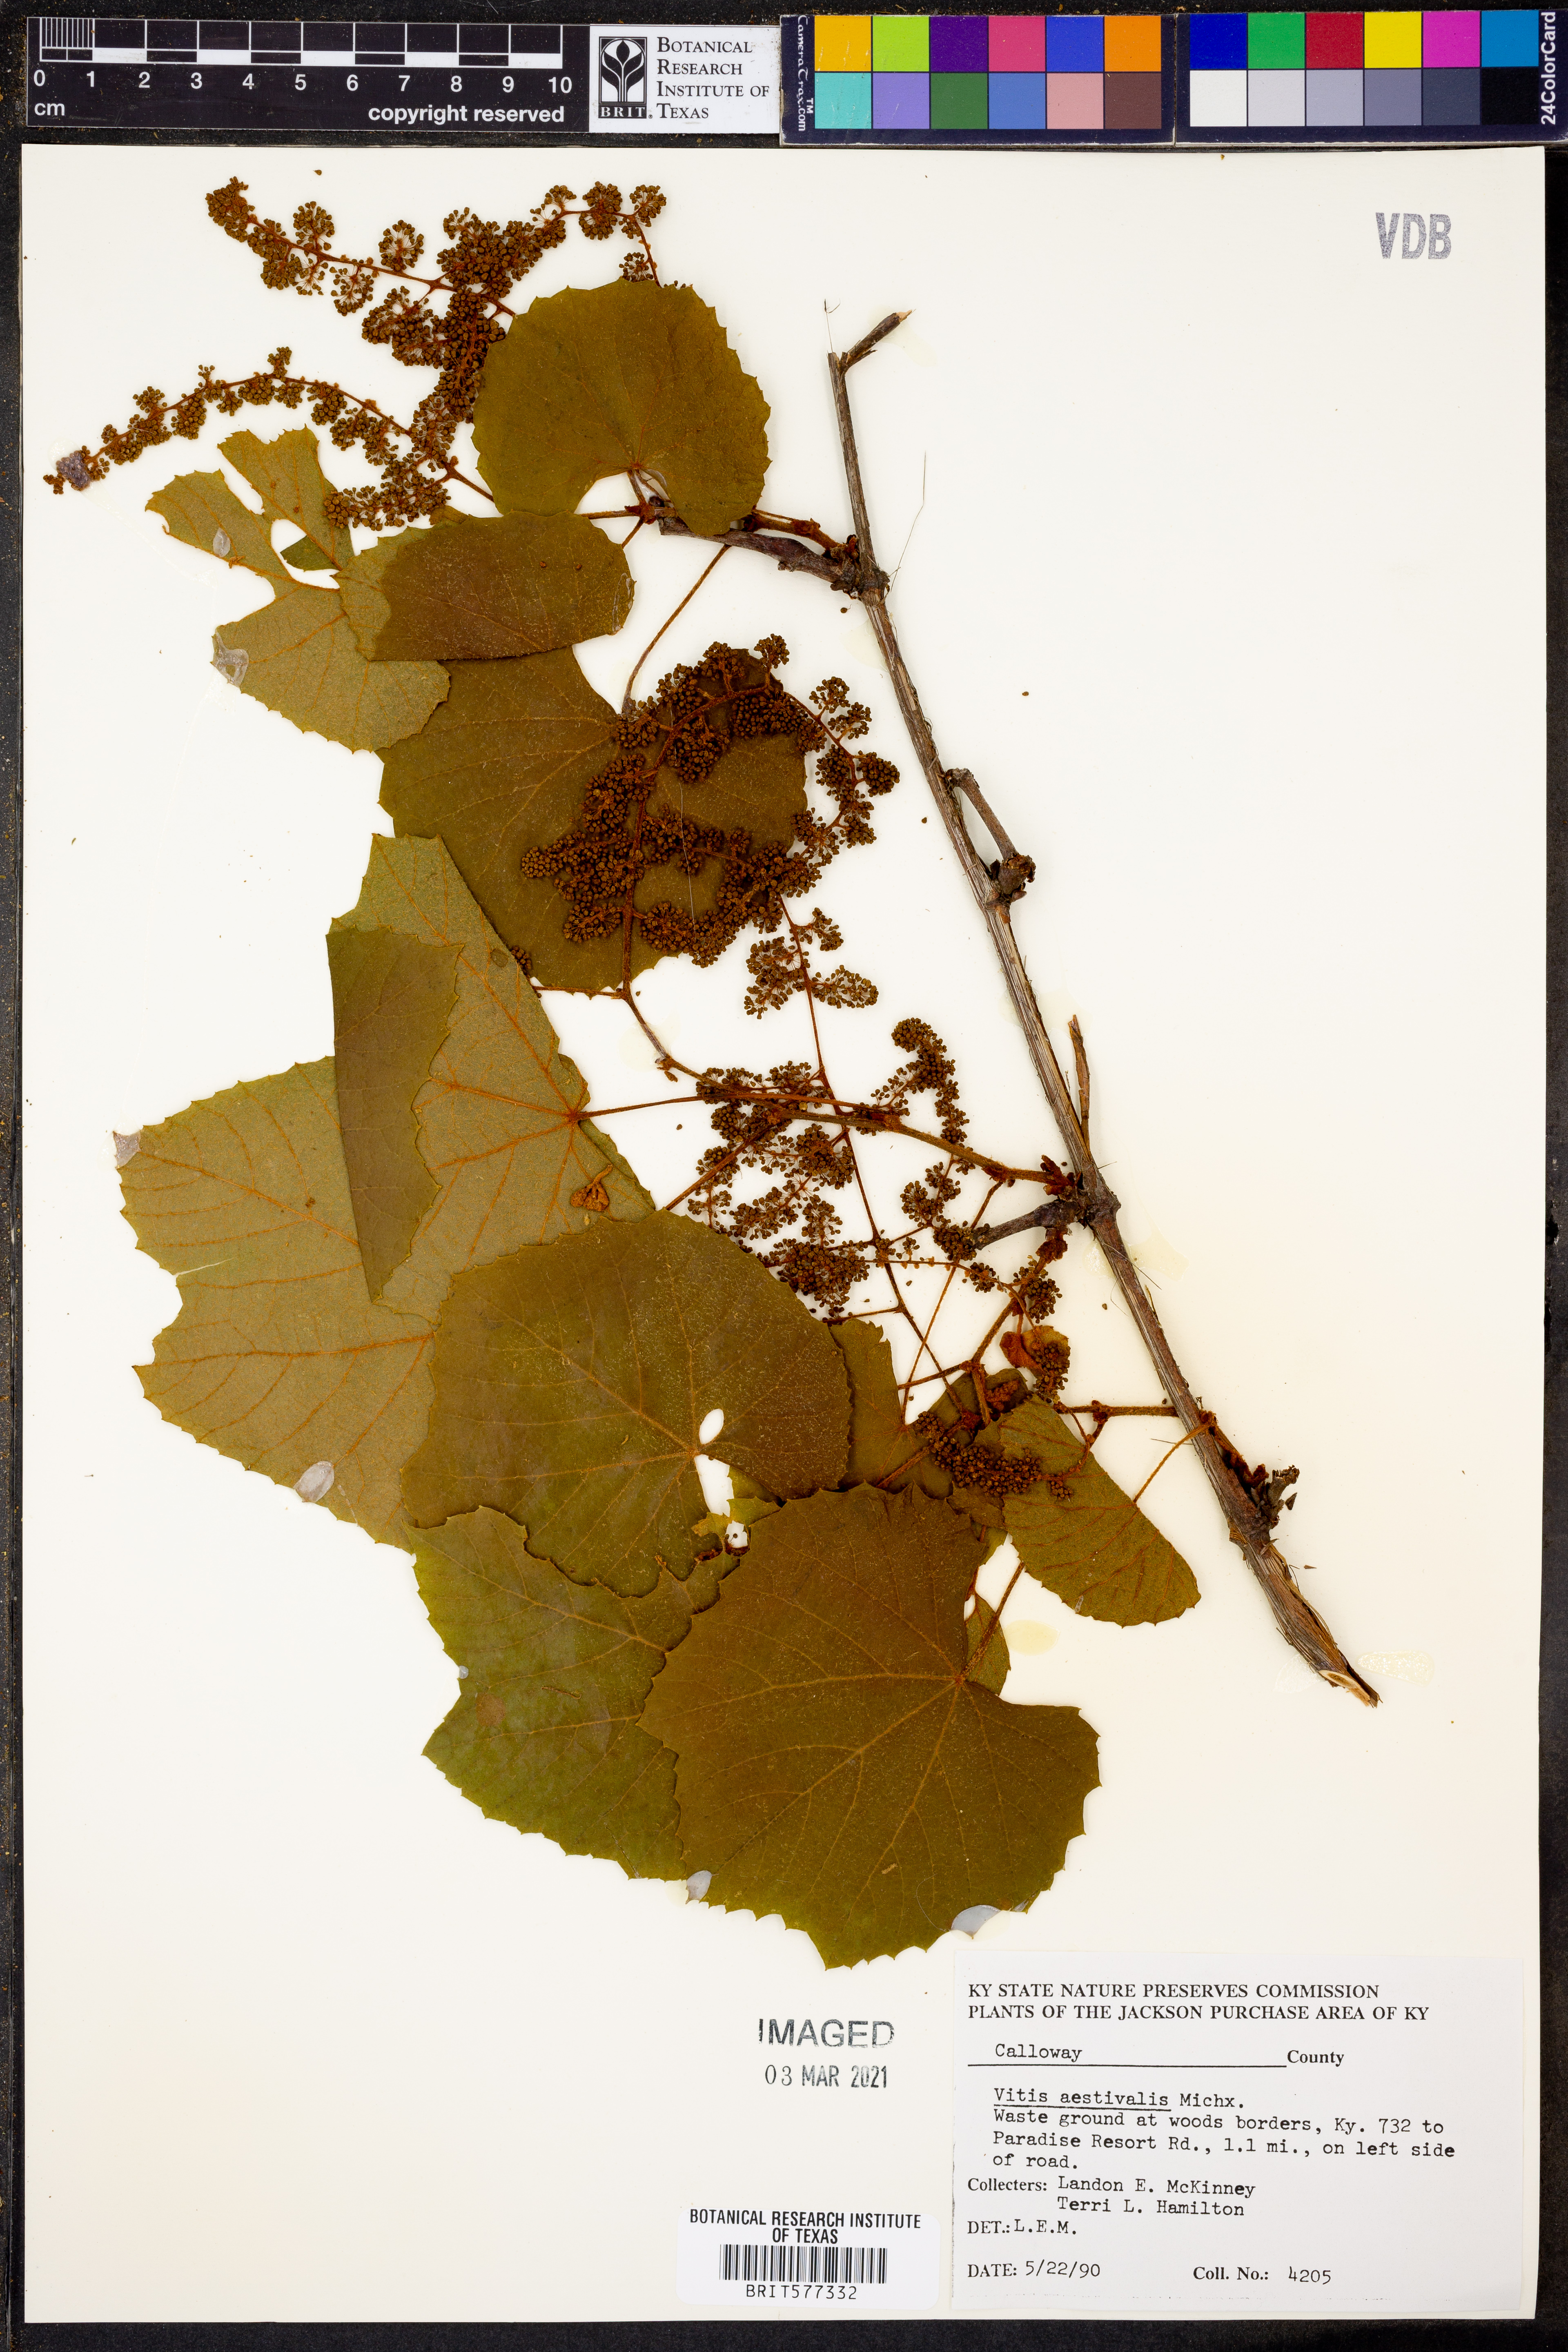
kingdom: Plantae
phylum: Tracheophyta
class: Magnoliopsida
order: Vitales
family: Vitaceae
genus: Vitis
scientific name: Vitis aestivalis
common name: Pigeon grape
